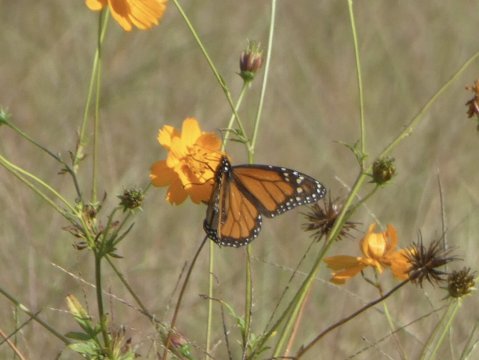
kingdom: Animalia
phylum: Arthropoda
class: Insecta
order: Lepidoptera
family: Nymphalidae
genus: Danaus
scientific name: Danaus plexippus
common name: Monarch
